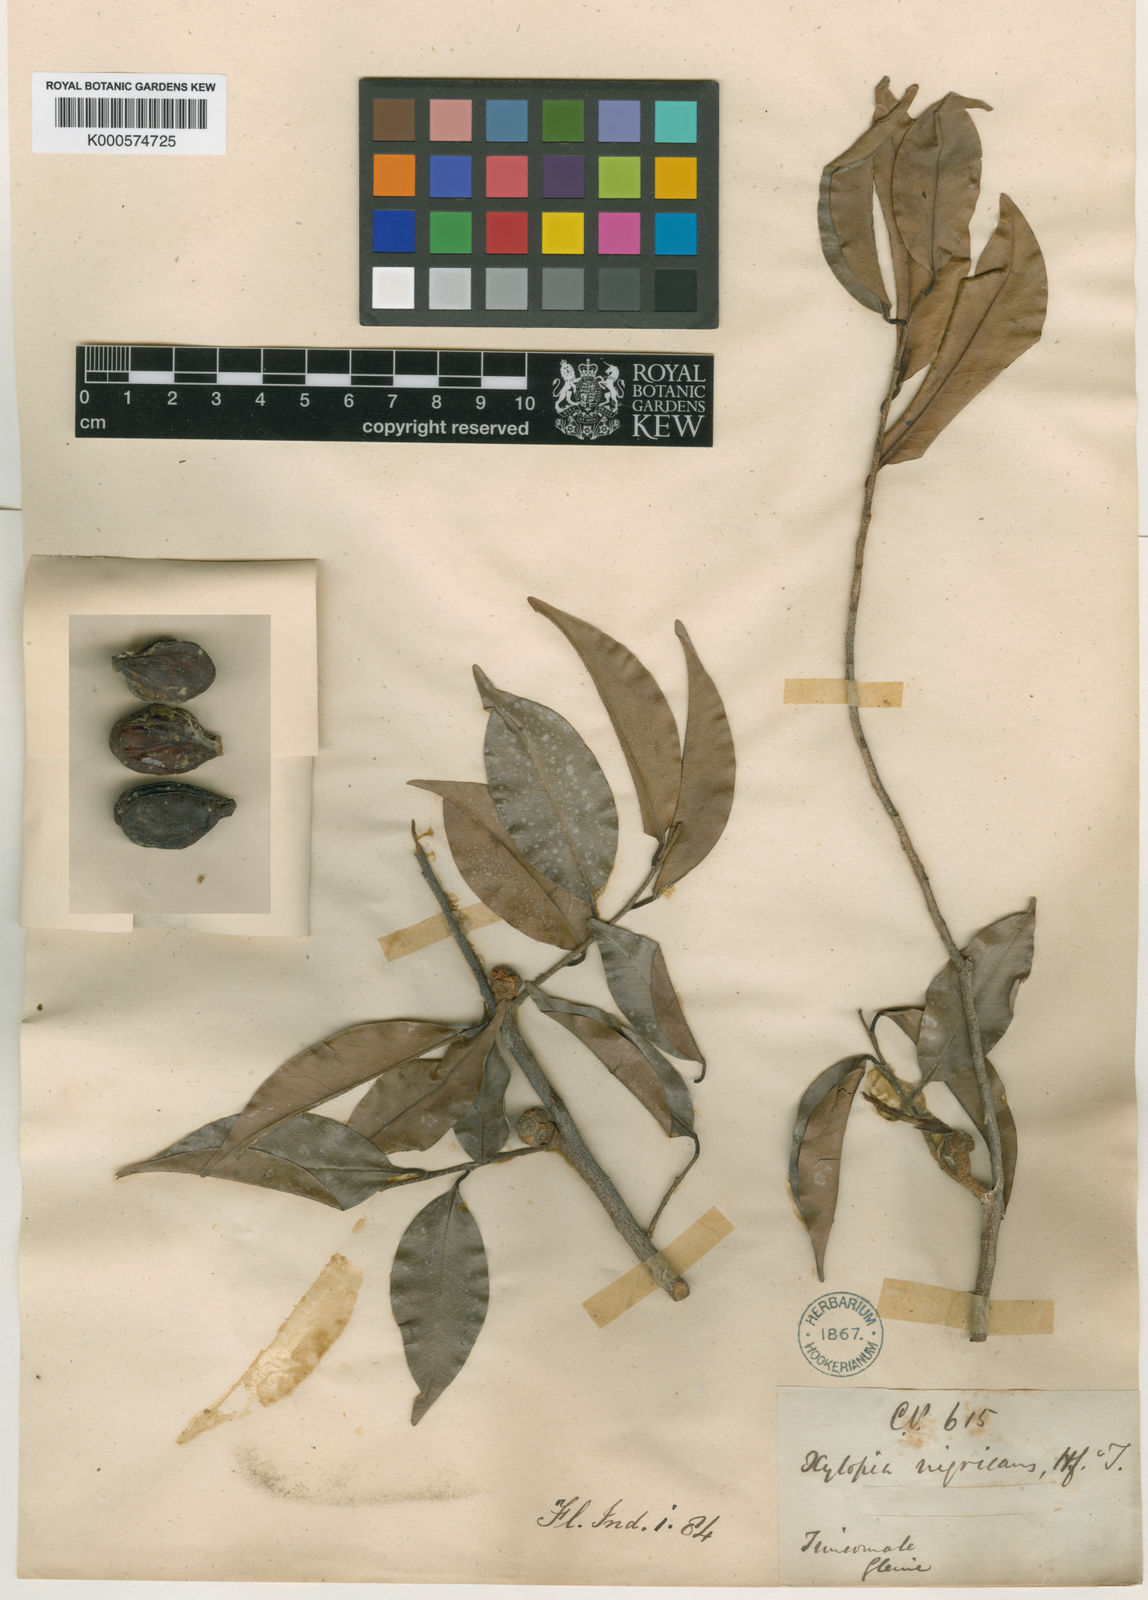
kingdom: Plantae
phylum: Tracheophyta
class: Magnoliopsida
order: Magnoliales
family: Annonaceae
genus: Xylopia
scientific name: Xylopia nigricans
